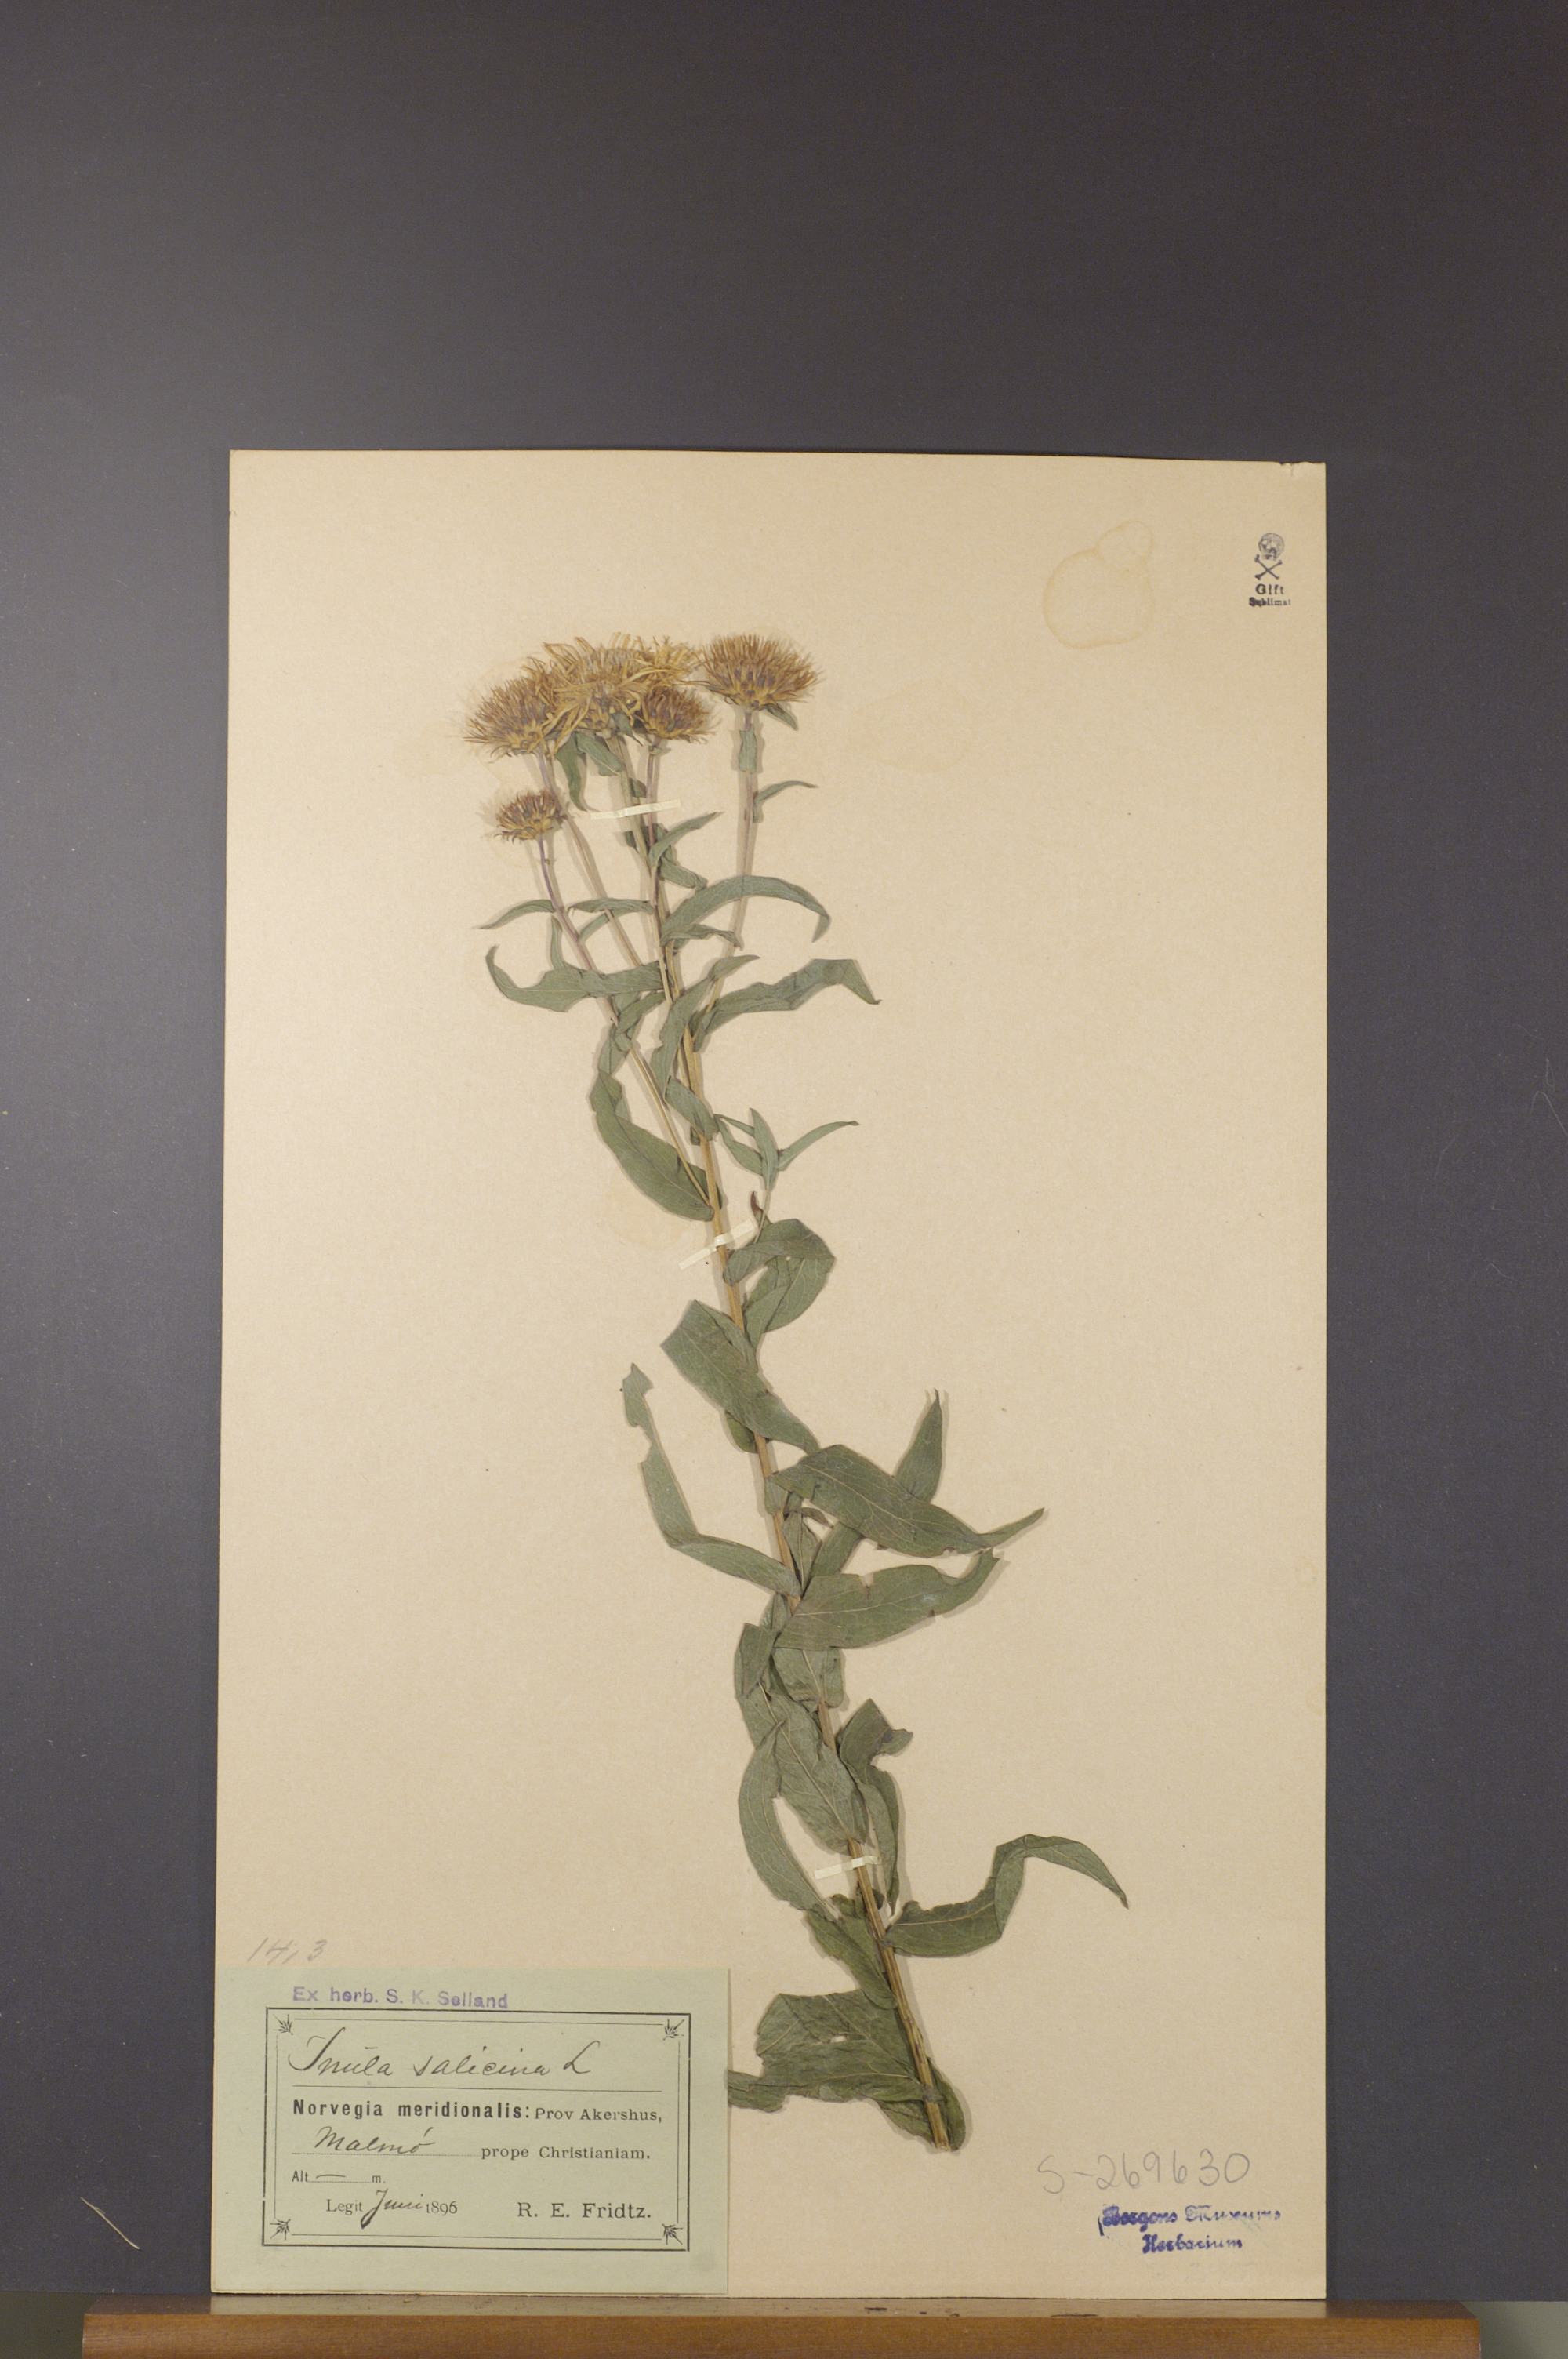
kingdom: Plantae
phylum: Tracheophyta
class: Magnoliopsida
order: Asterales
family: Asteraceae
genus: Pentanema
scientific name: Pentanema salicinum
